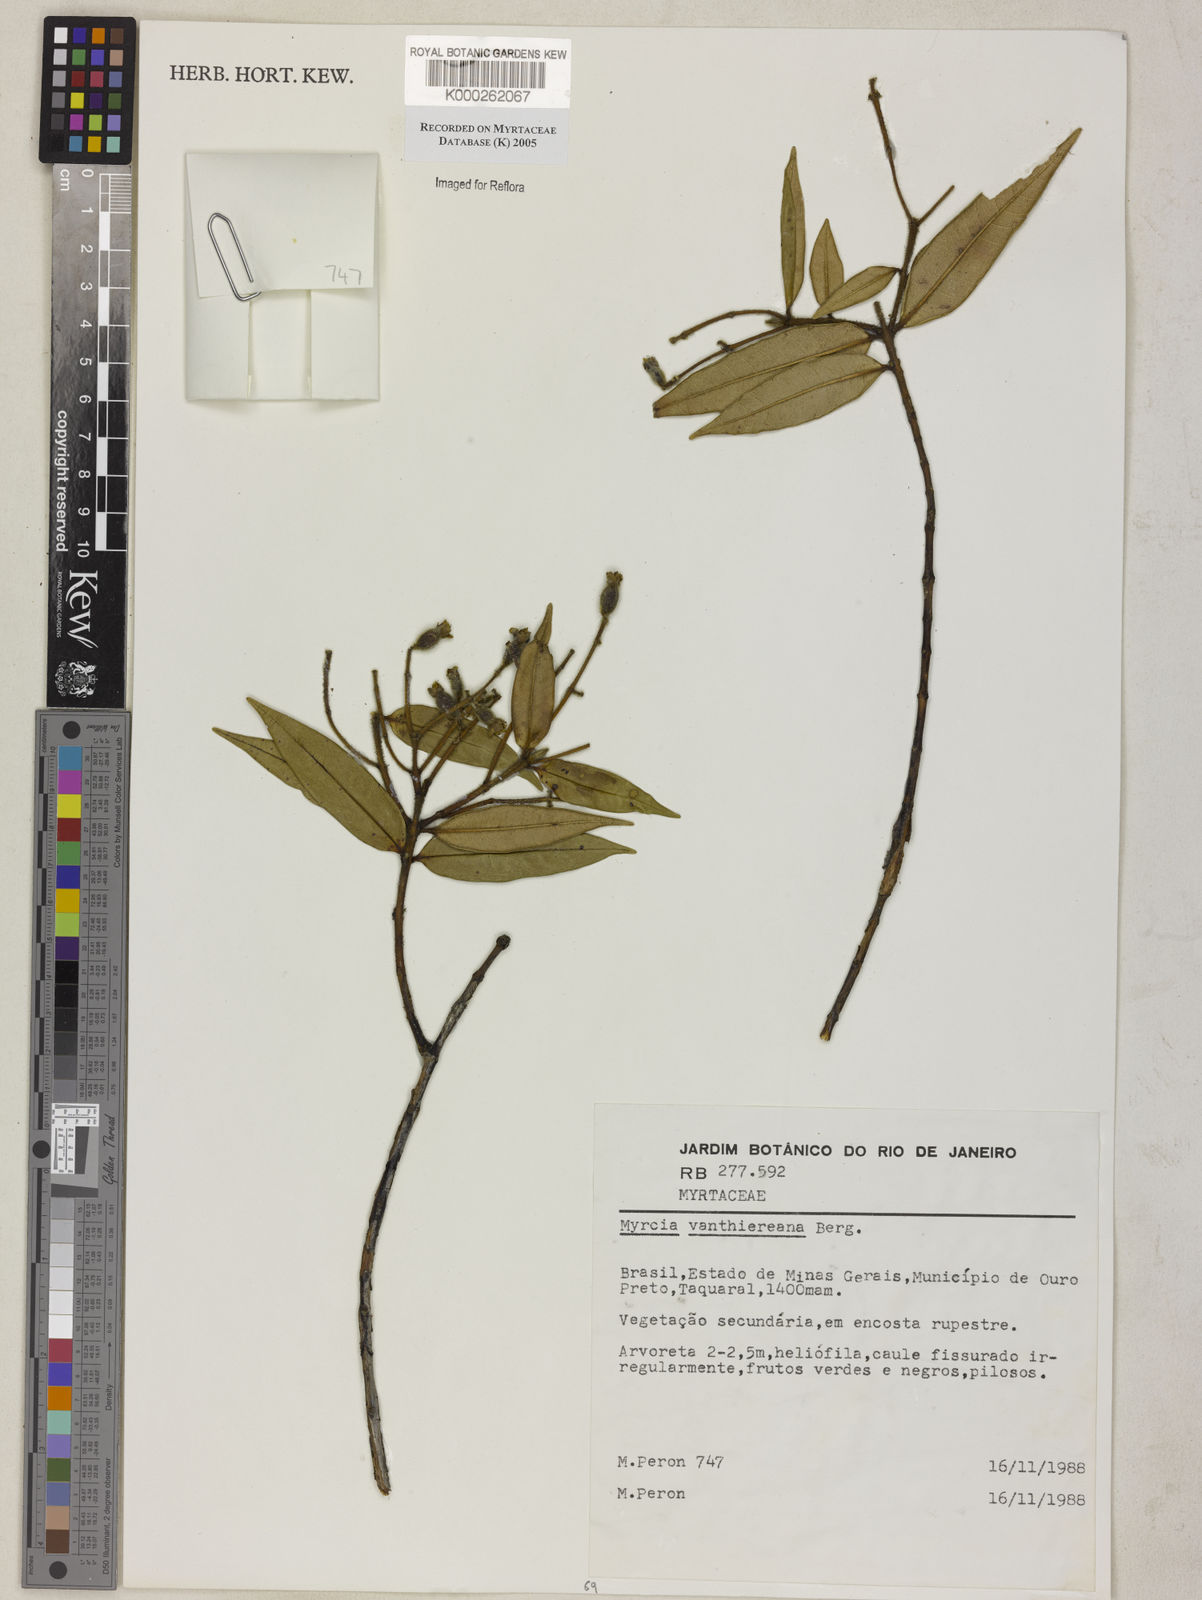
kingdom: Plantae
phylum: Tracheophyta
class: Magnoliopsida
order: Myrtales
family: Myrtaceae
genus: Myrcia
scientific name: Myrcia vauthiereana
